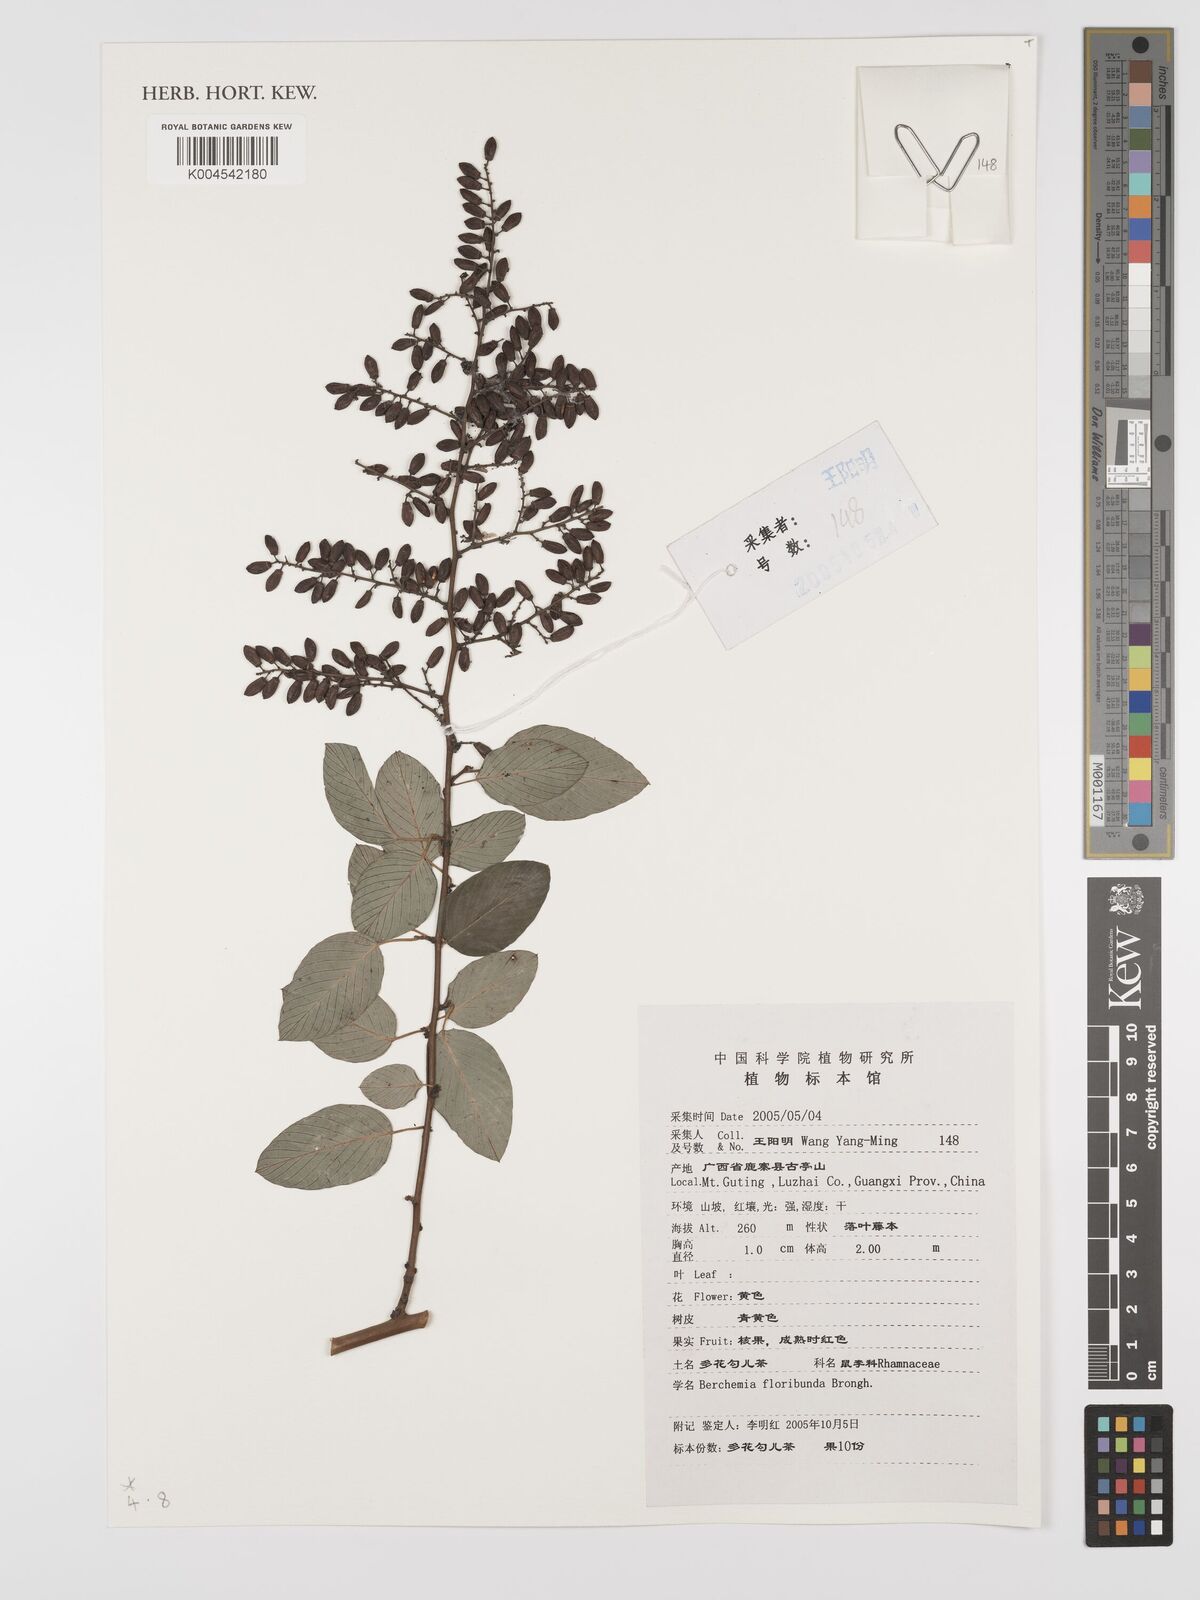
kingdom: Plantae
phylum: Tracheophyta
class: Magnoliopsida
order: Rosales
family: Rhamnaceae
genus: Berchemia
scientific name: Berchemia floribunda
